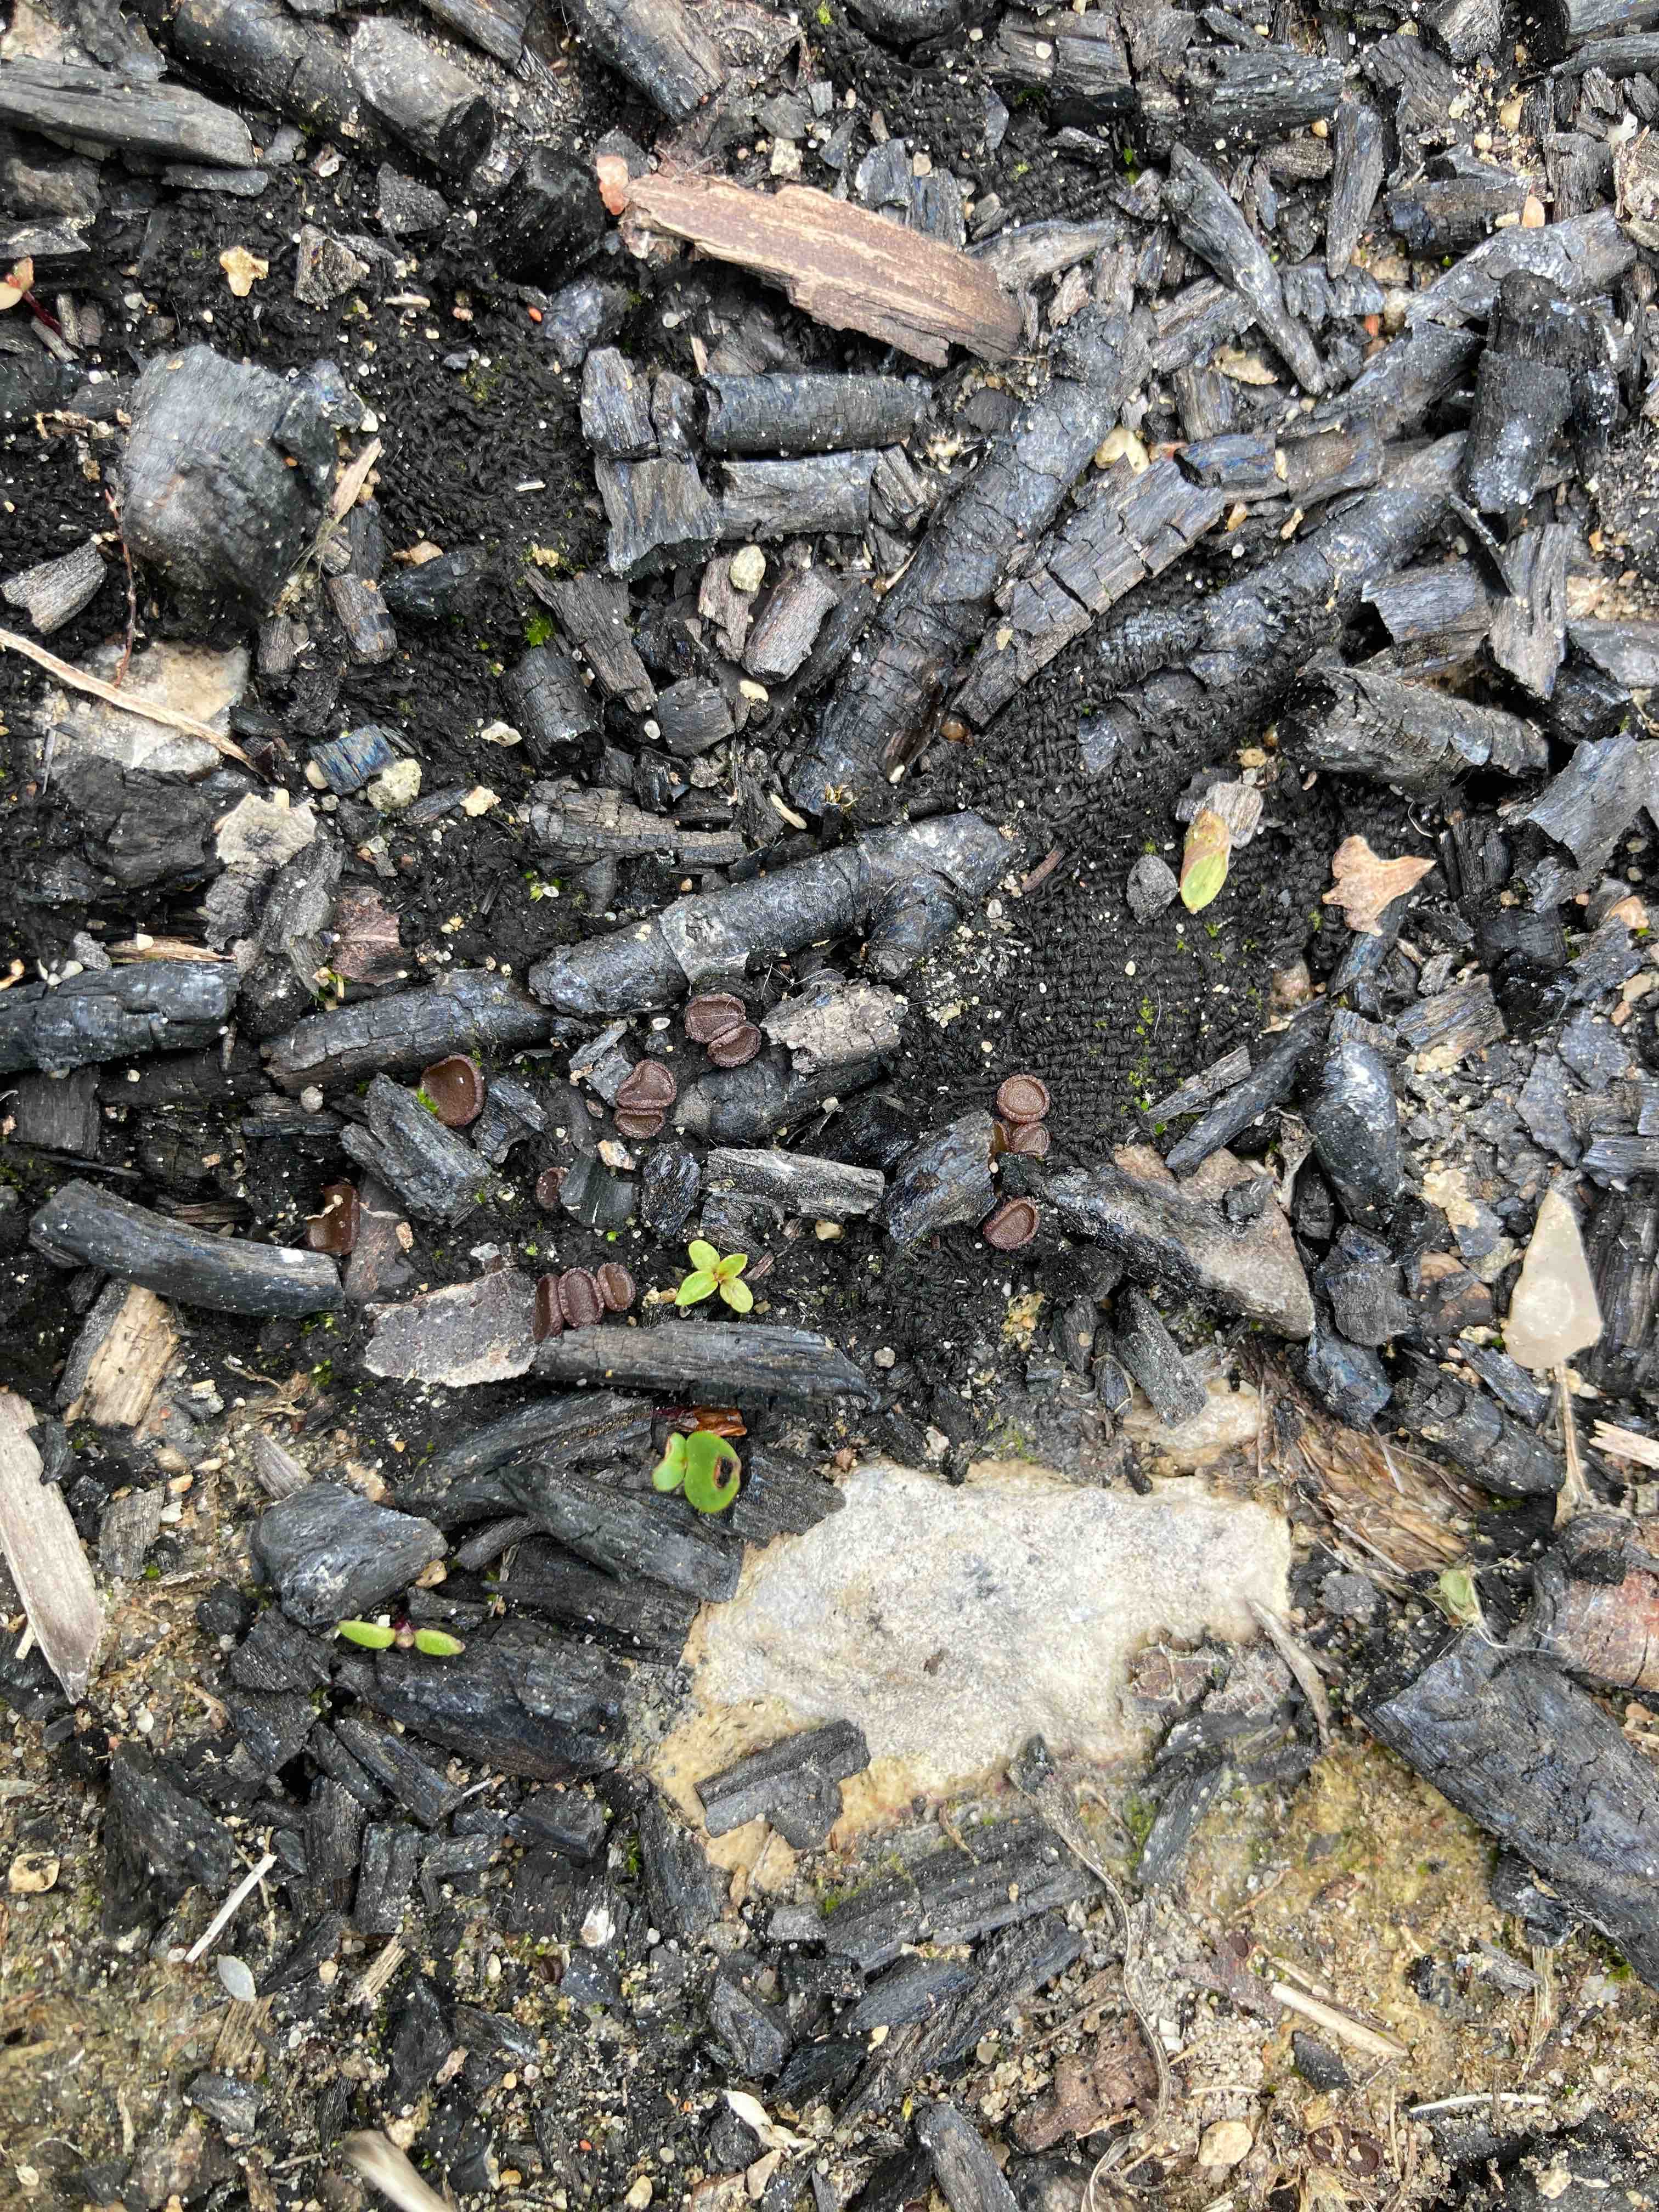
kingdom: Fungi
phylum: Ascomycota
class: Pezizomycetes
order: Pezizales
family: Ascobolaceae
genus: Ascobolus
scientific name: Ascobolus carbonarius
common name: kul-prikbæger
